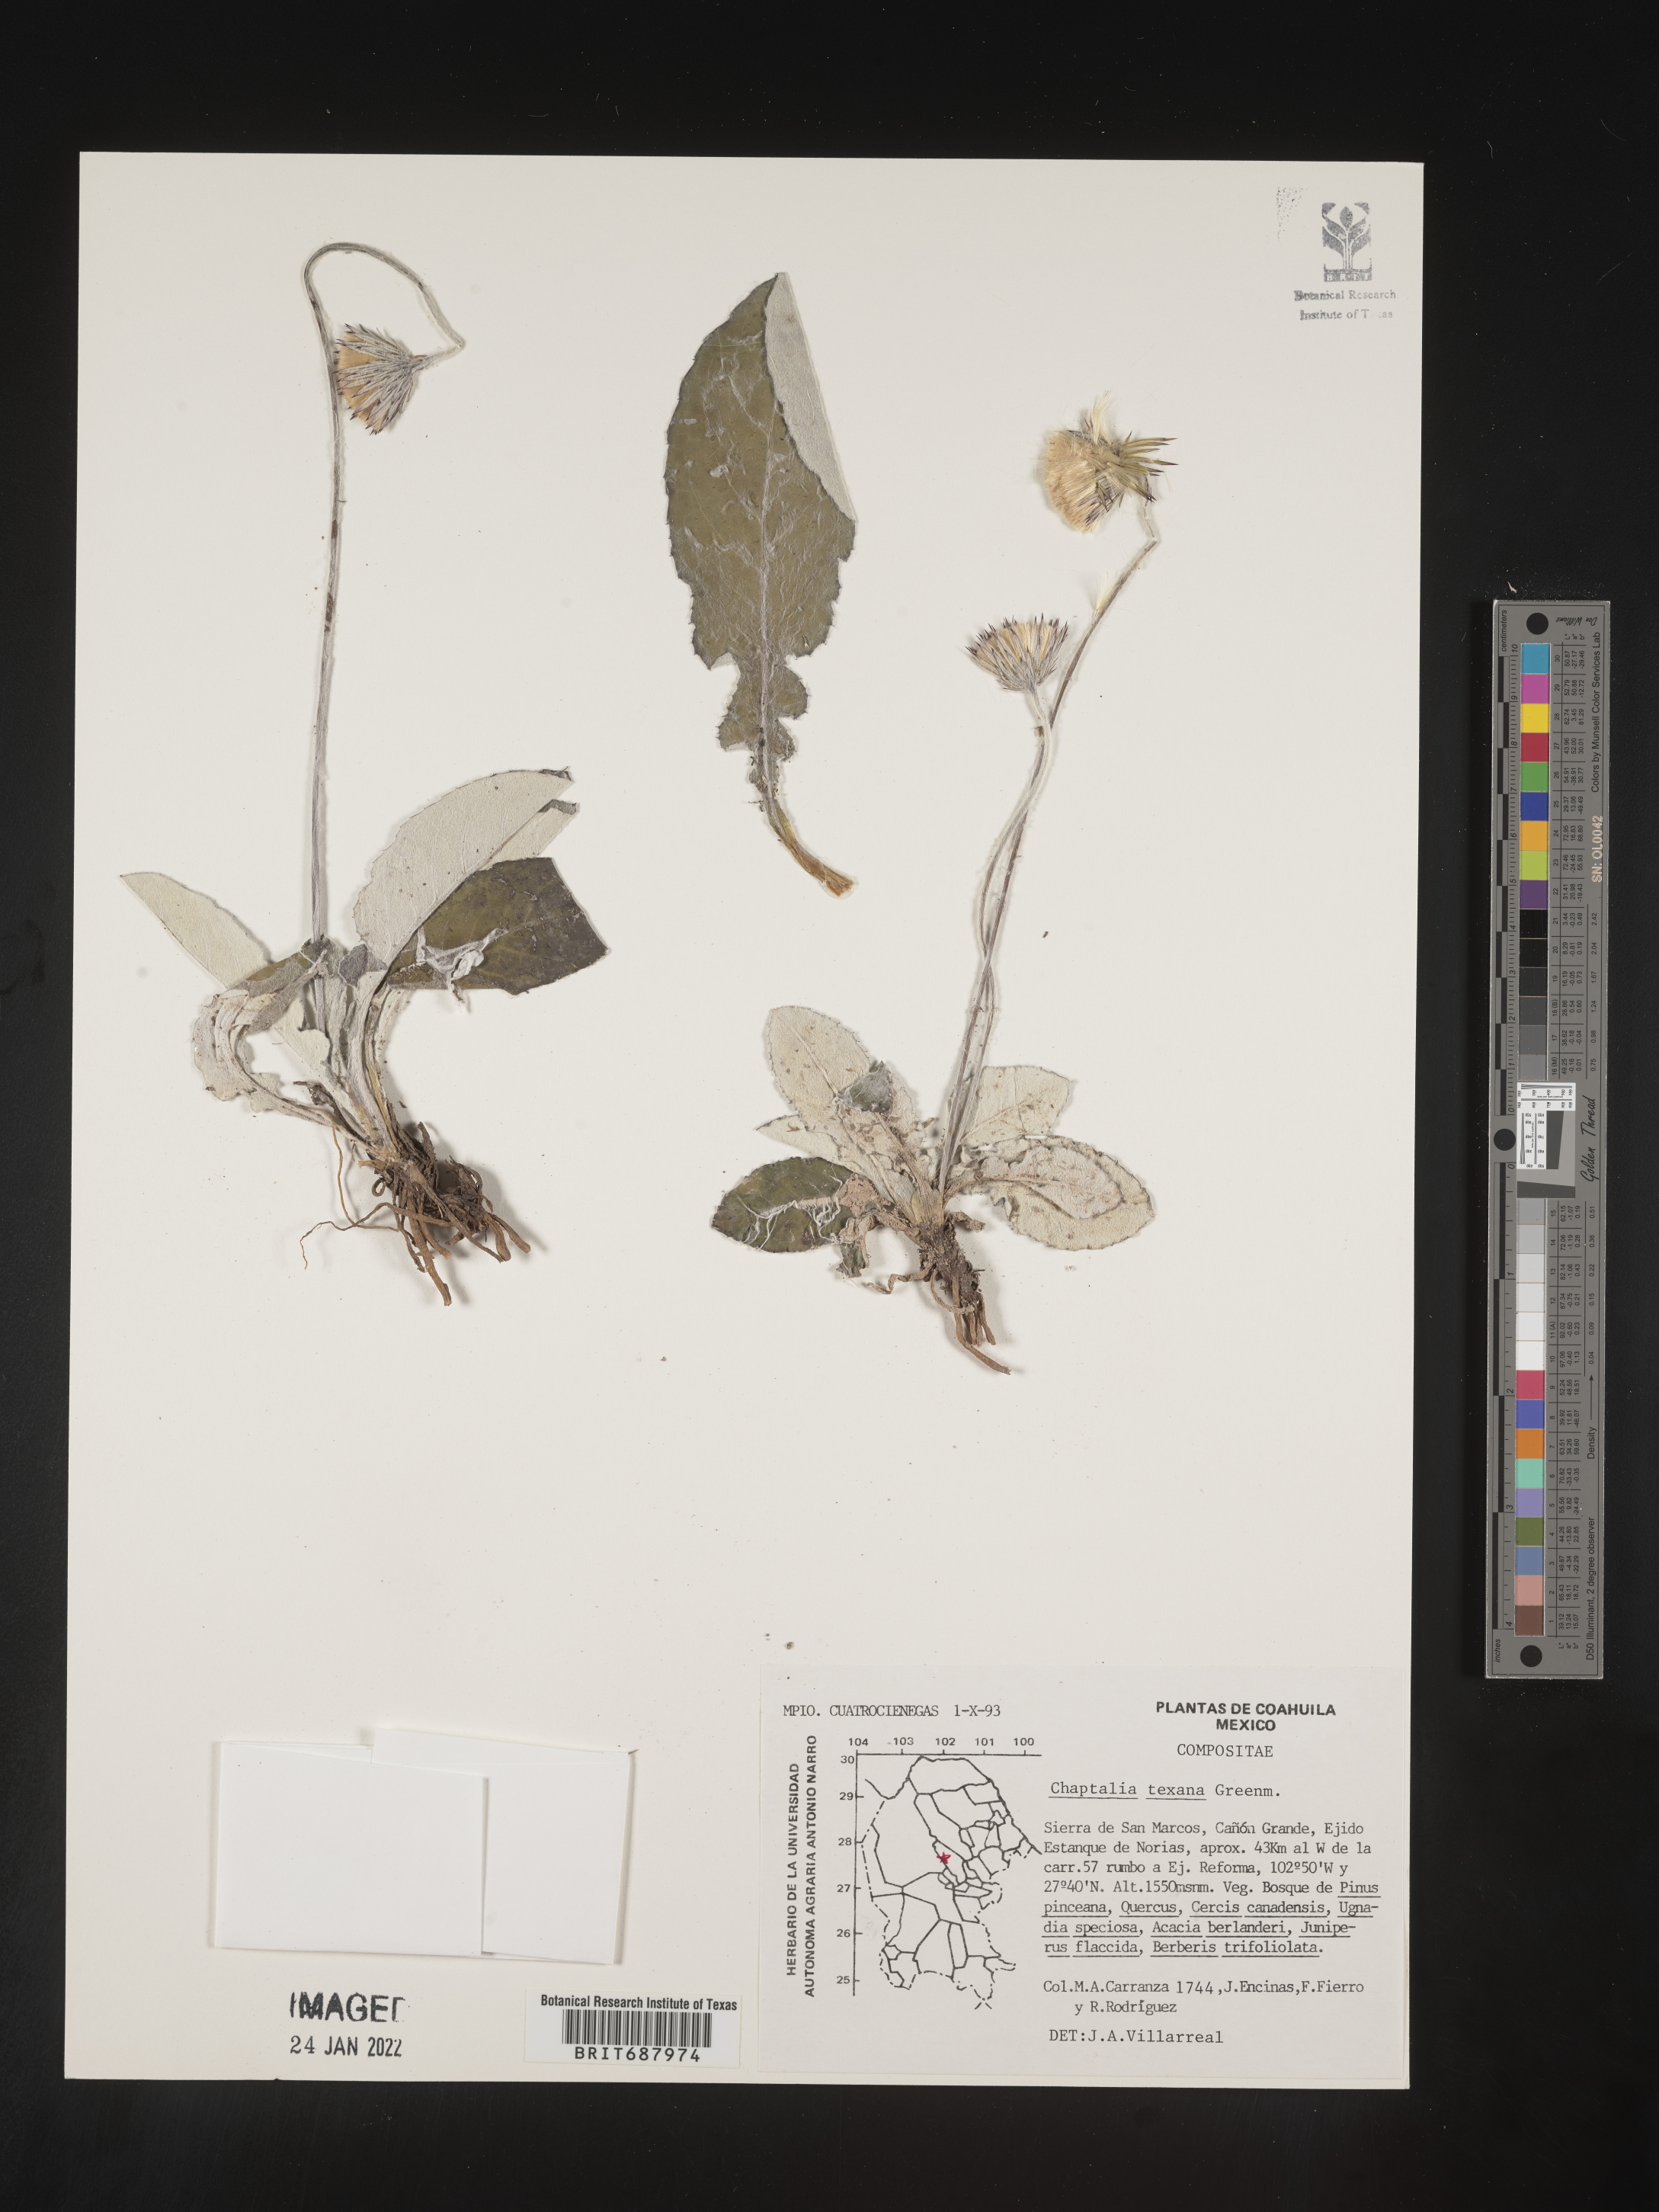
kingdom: Plantae
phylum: Tracheophyta
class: Magnoliopsida
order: Asterales
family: Asteraceae
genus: Chaptalia
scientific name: Chaptalia
